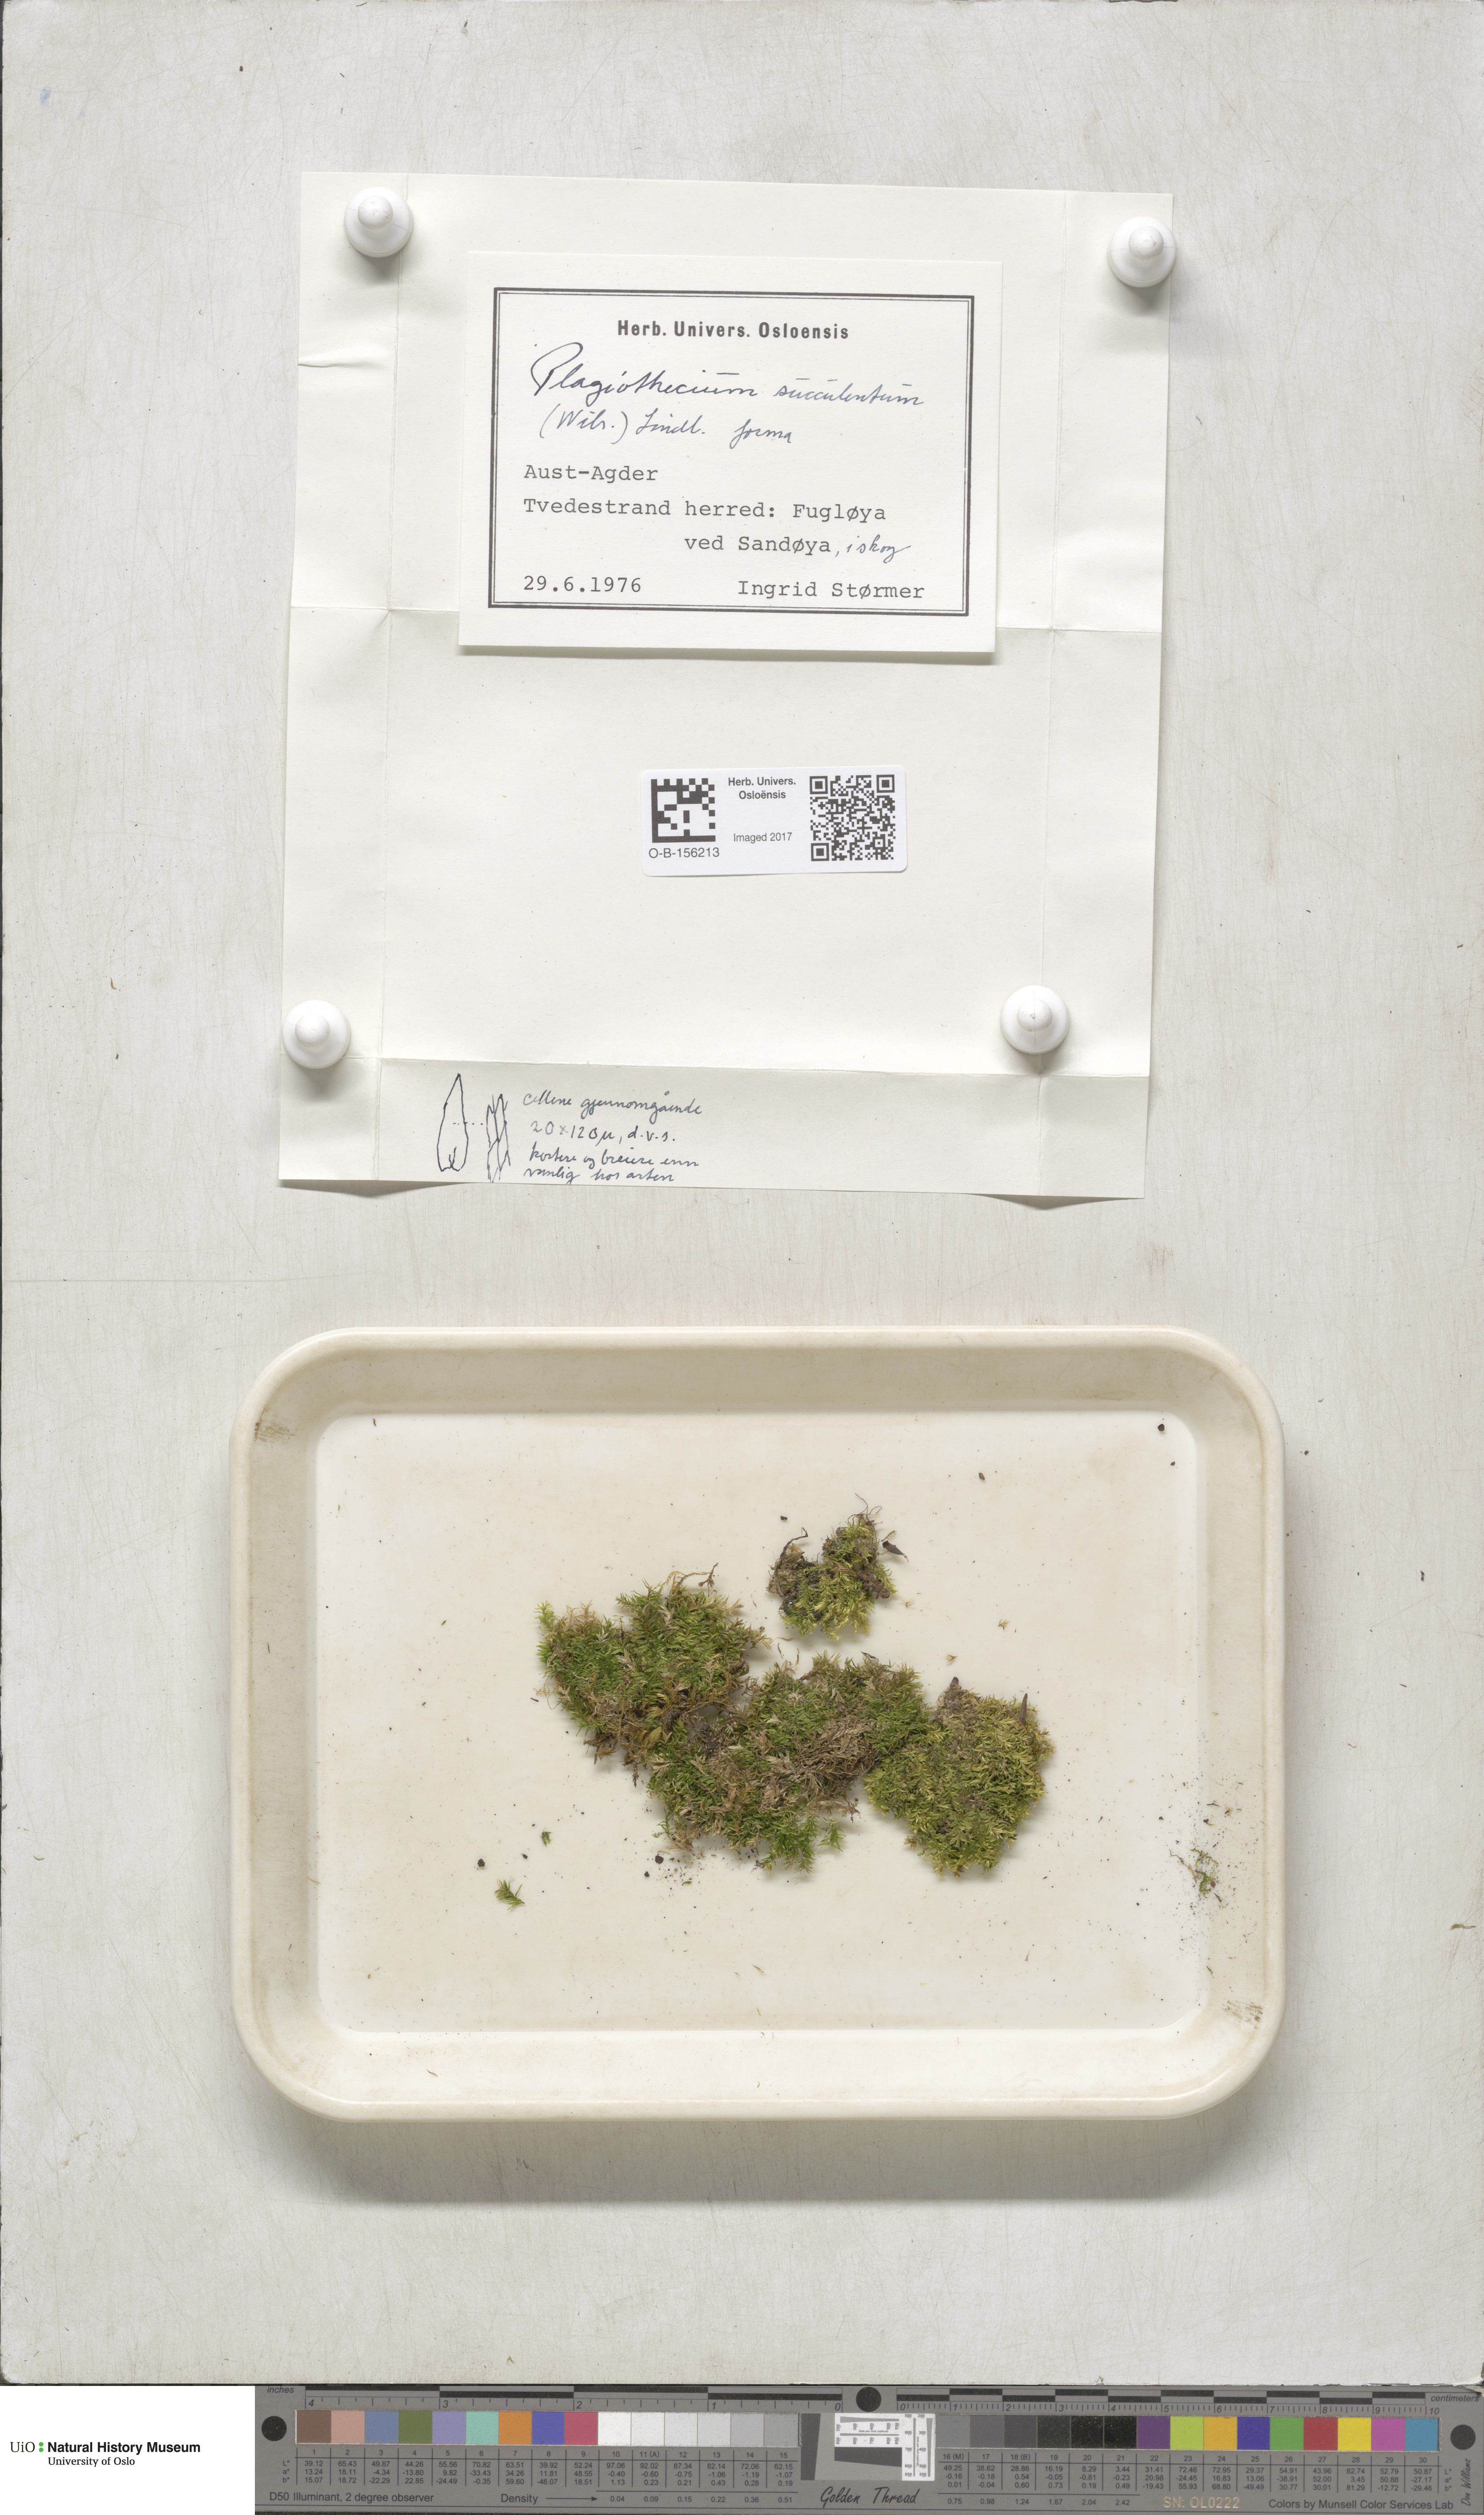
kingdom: Plantae
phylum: Bryophyta
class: Bryopsida
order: Hypnales
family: Plagiotheciaceae
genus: Plagiothecium
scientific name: Plagiothecium nemorale
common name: Woodsy silk-moss
